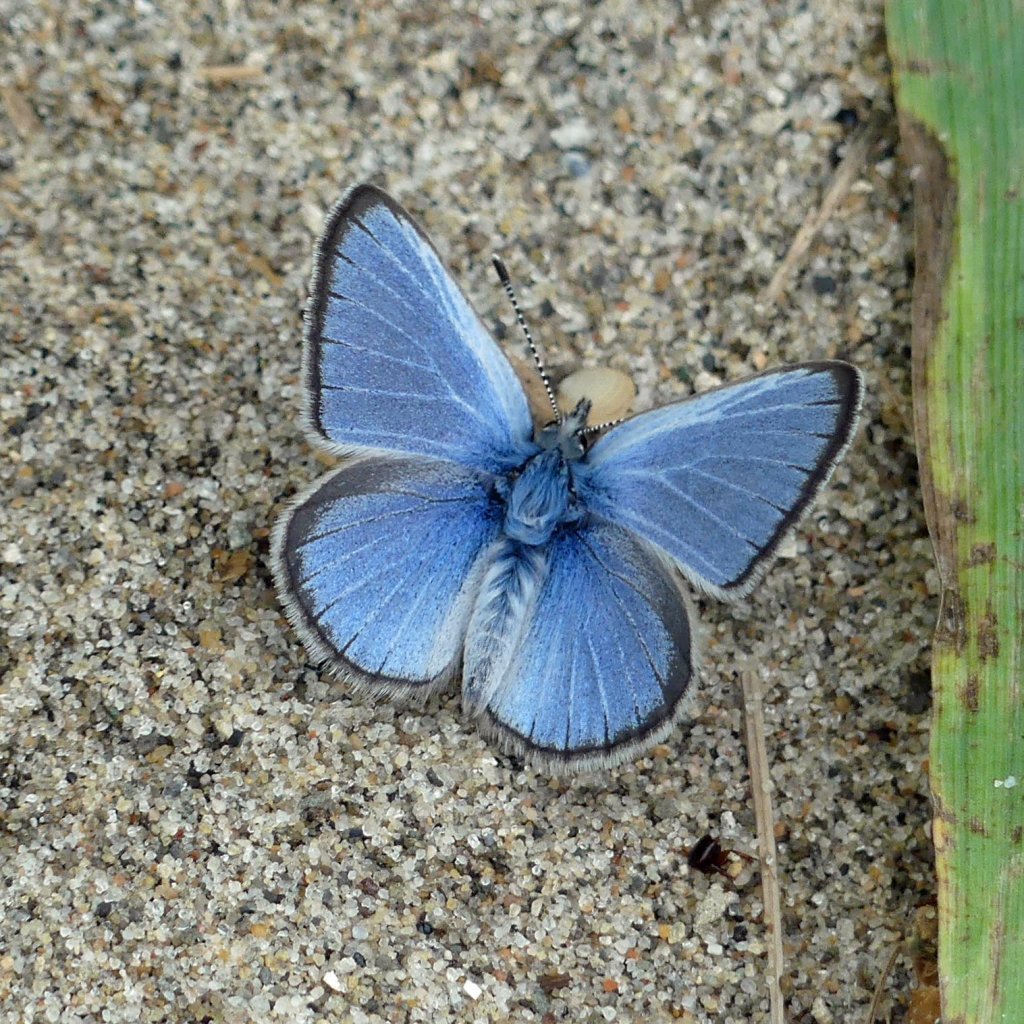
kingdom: Animalia
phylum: Arthropoda
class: Insecta
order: Lepidoptera
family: Lycaenidae
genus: Glaucopsyche
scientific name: Glaucopsyche lygdamus
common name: Silvery Blue
